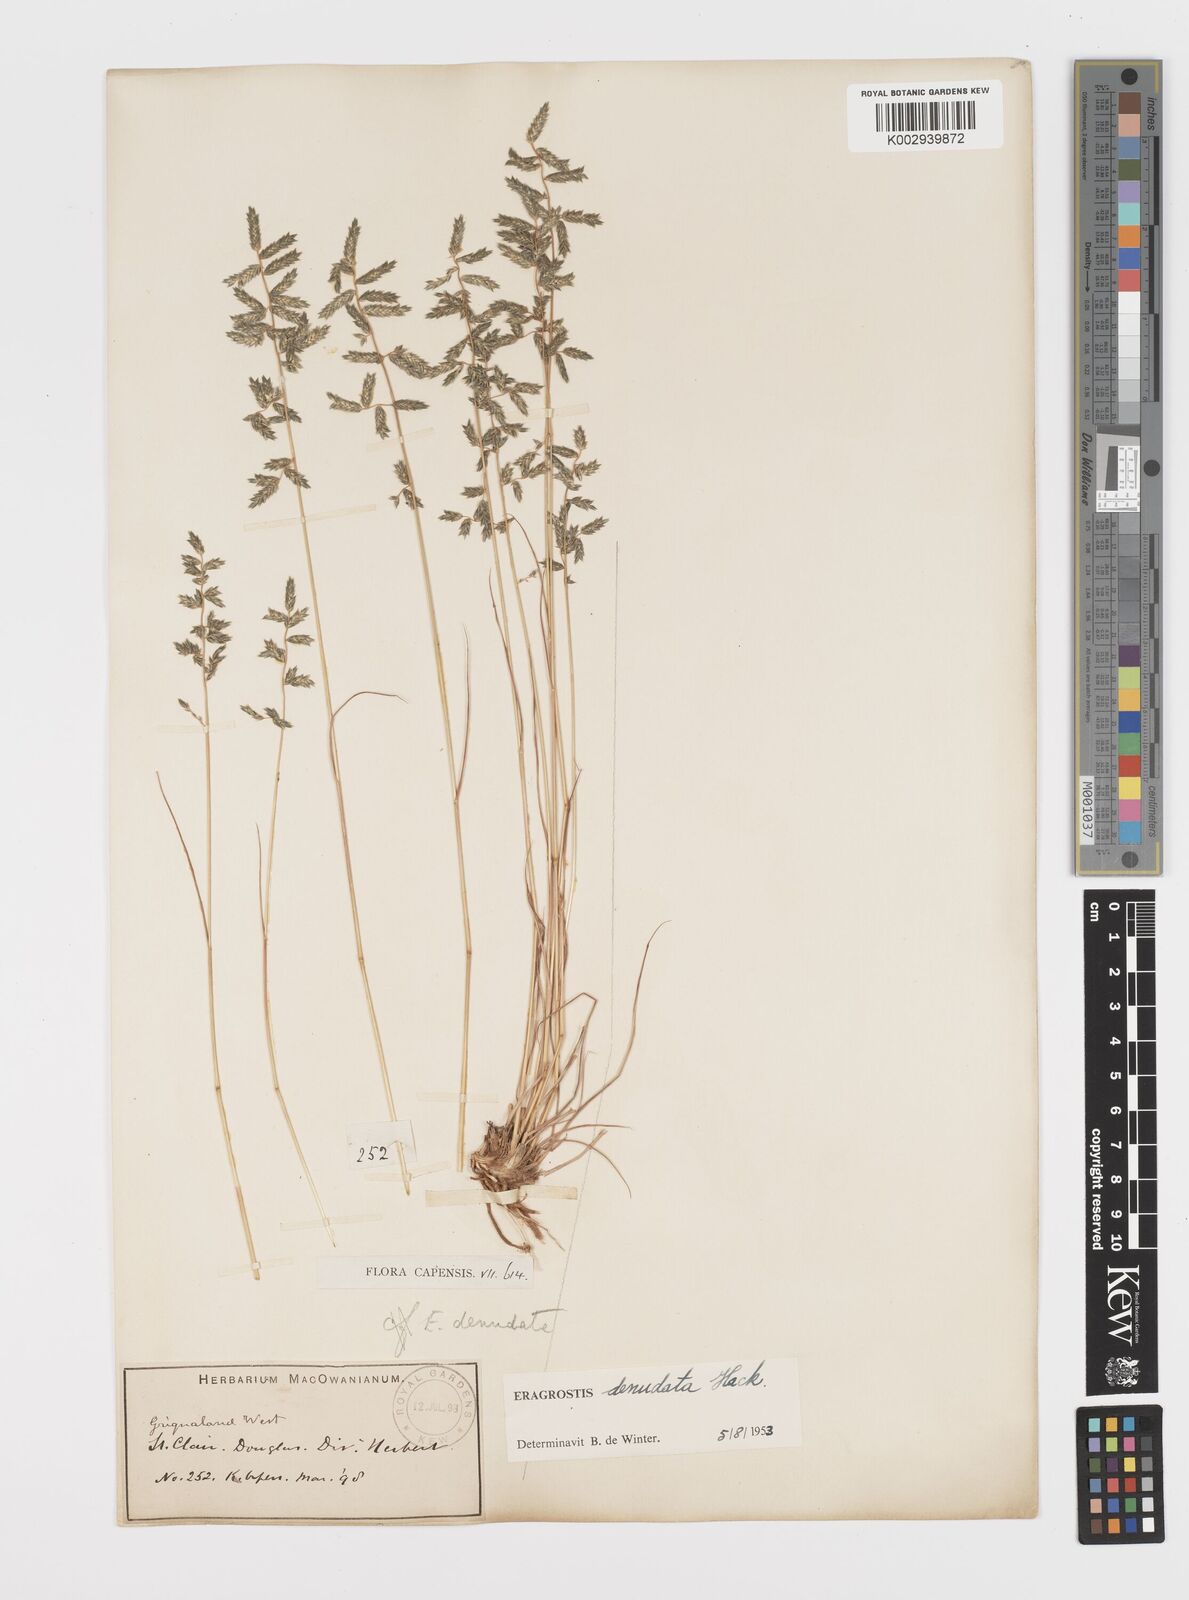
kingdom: Plantae
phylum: Tracheophyta
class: Liliopsida
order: Poales
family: Poaceae
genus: Eragrostis
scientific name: Eragrostis nindensis
